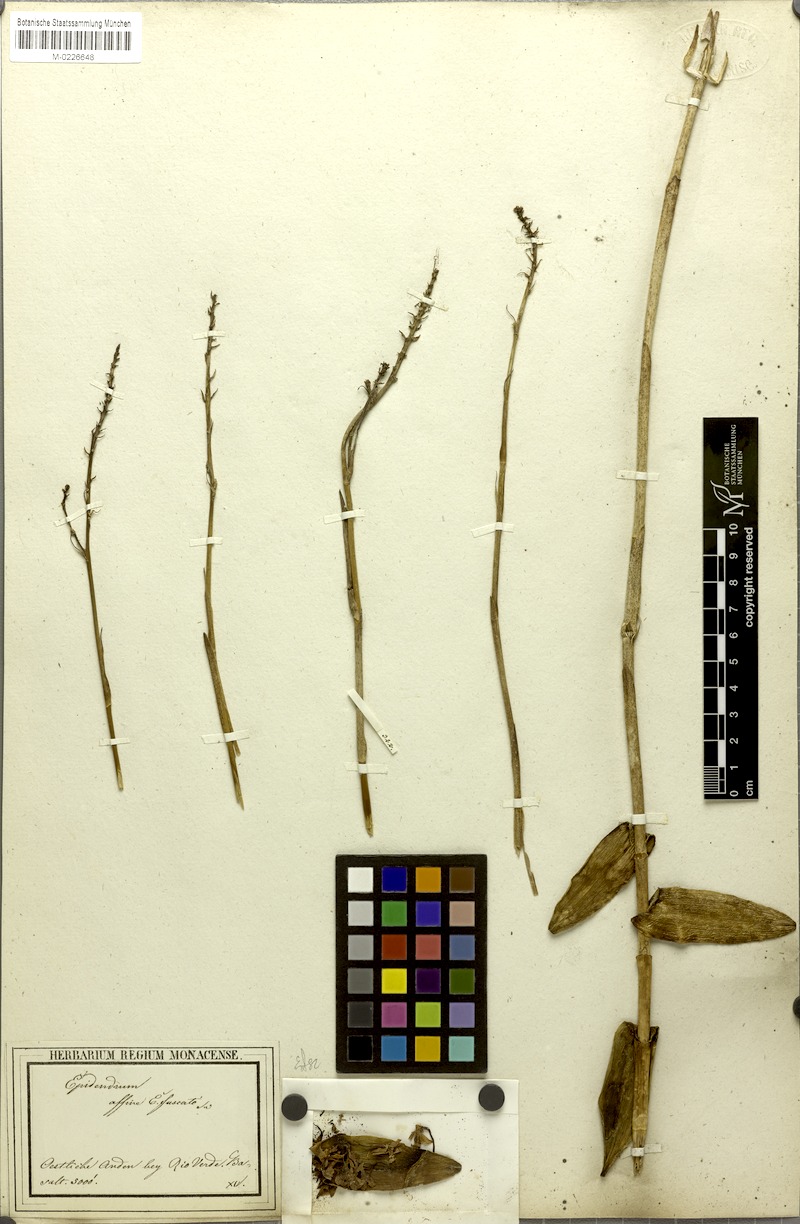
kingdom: Plantae
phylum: Tracheophyta
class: Liliopsida
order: Asparagales
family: Orchidaceae
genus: Epidendrum
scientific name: Epidendrum anceps
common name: Brown-flower butterfly orchid
